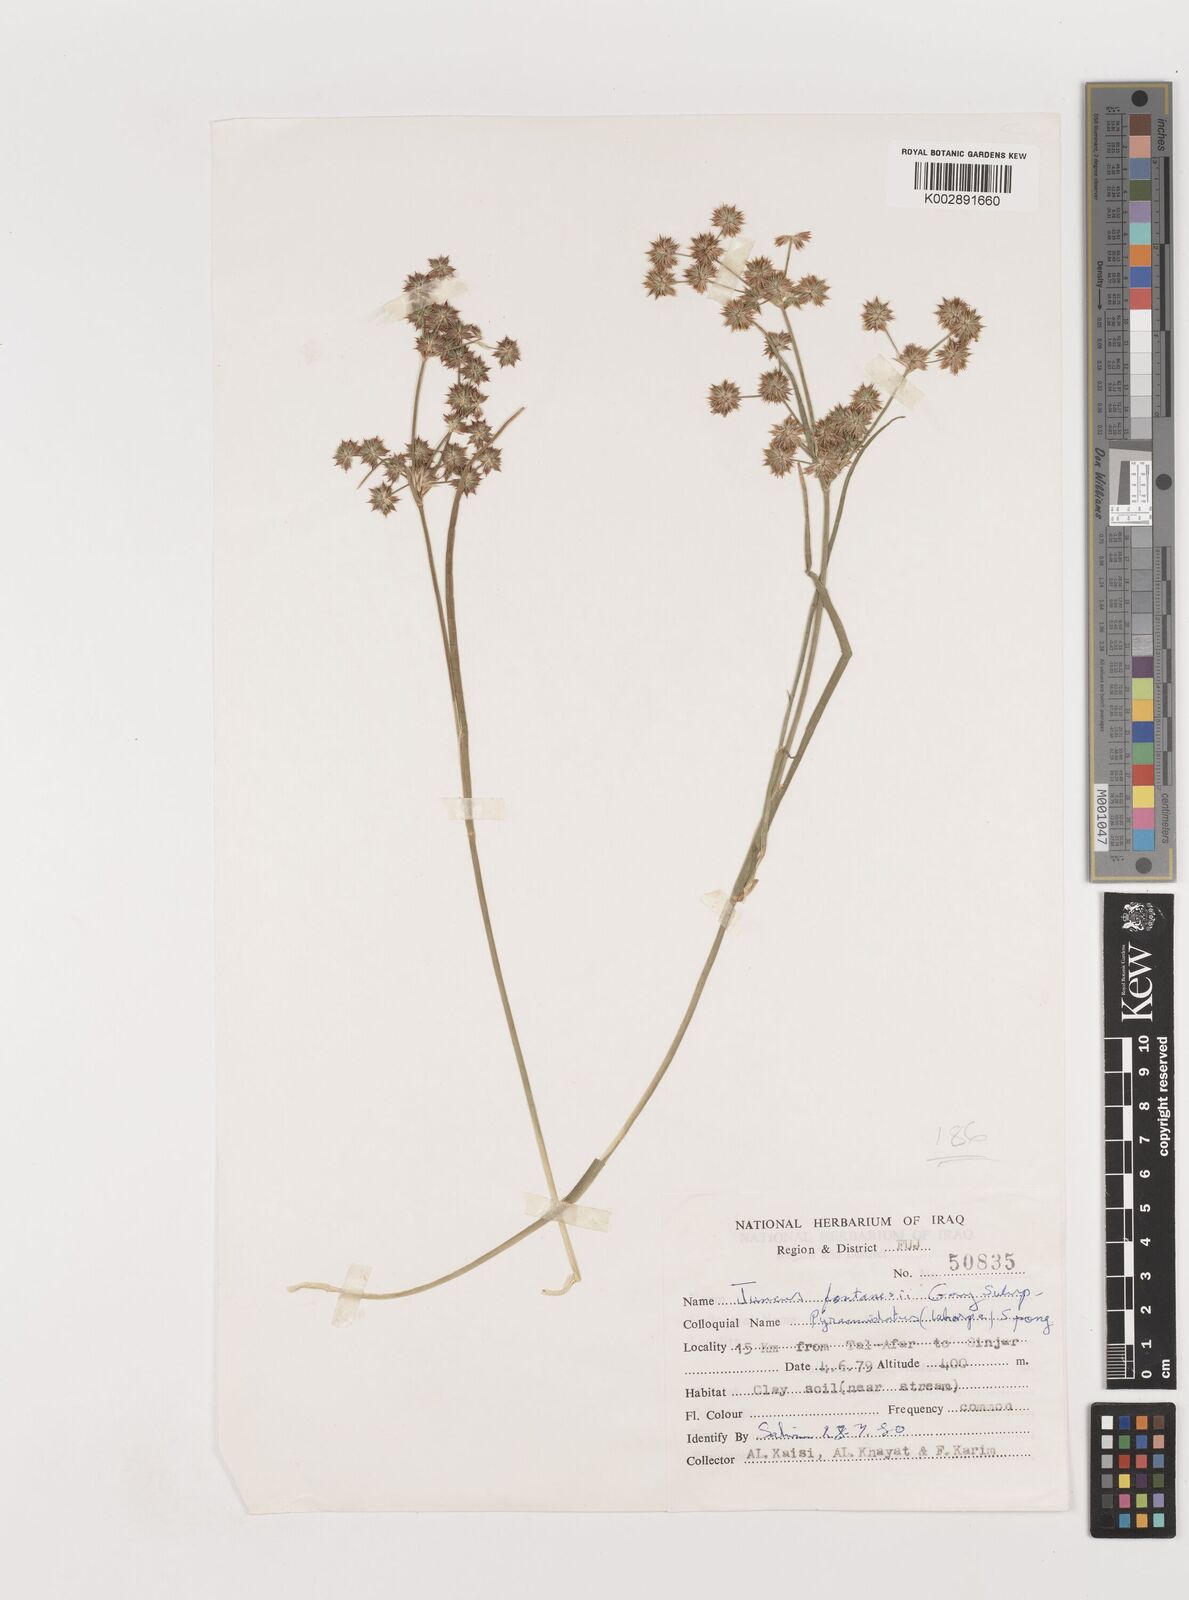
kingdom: Plantae
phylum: Tracheophyta
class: Liliopsida
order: Poales
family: Juncaceae
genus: Juncus
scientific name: Juncus fontanesii
